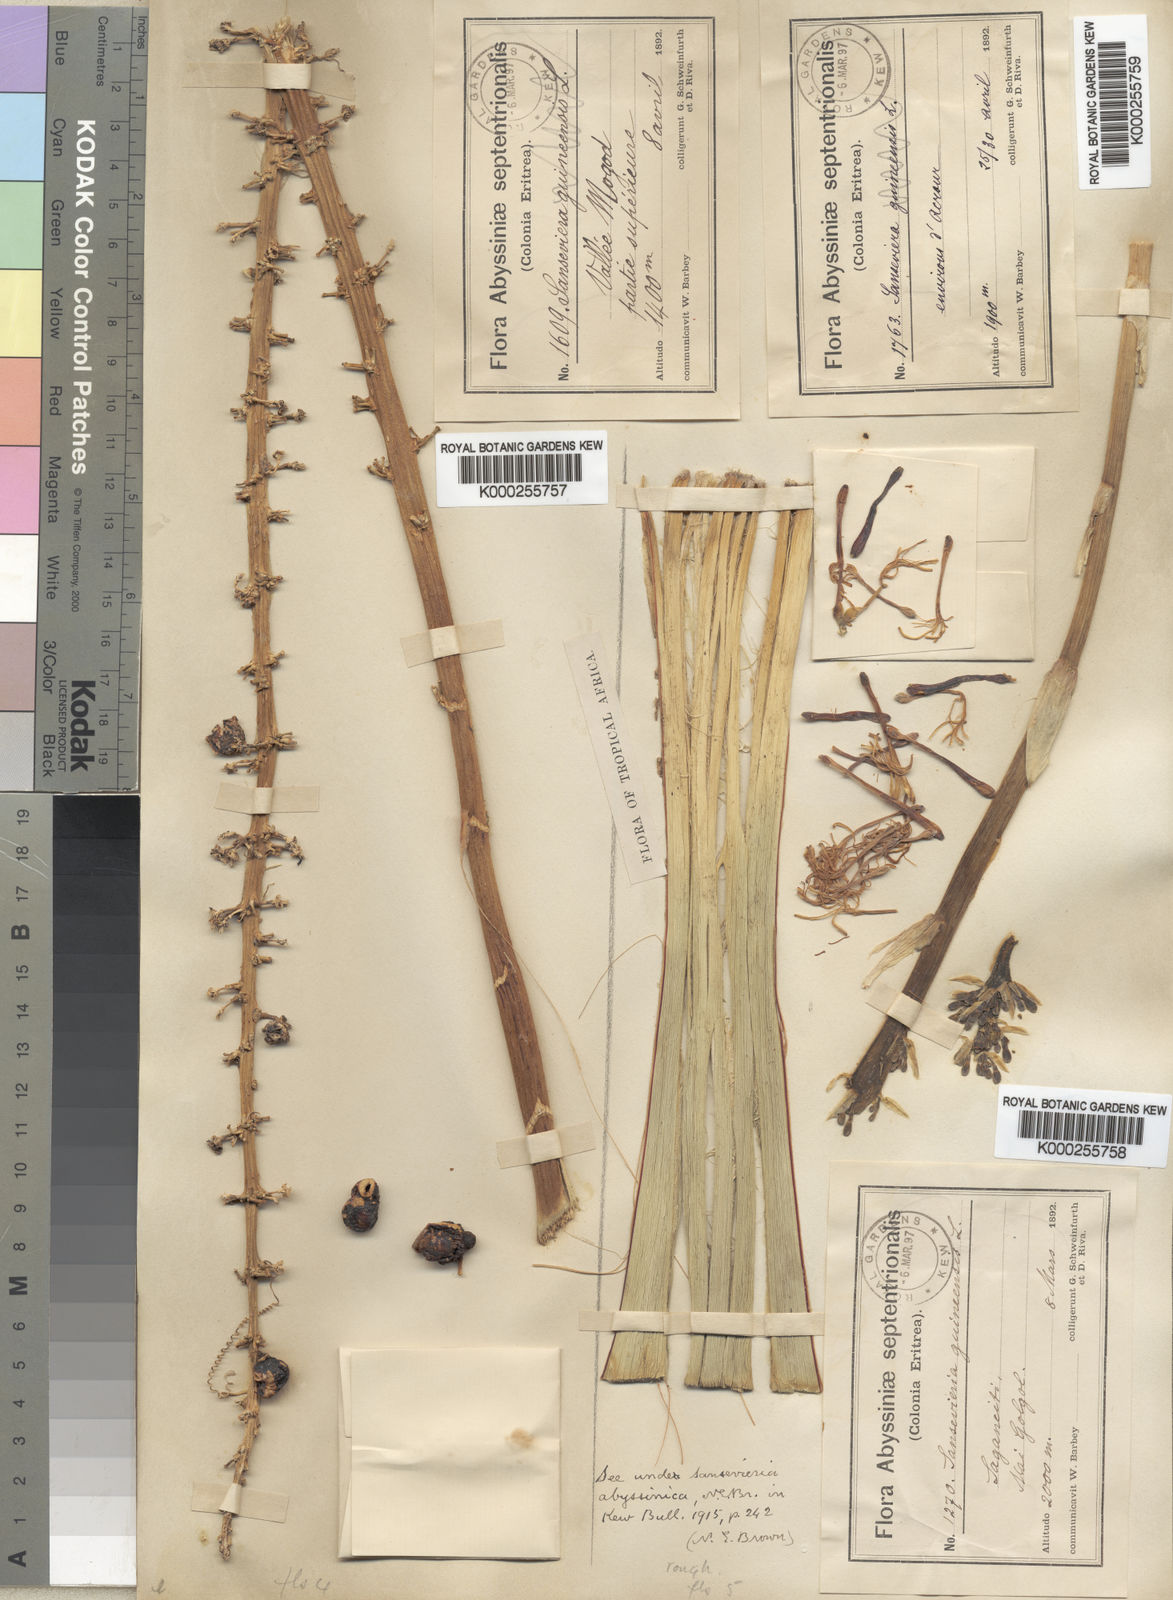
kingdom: Plantae
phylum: Tracheophyta
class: Liliopsida
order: Asparagales
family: Asparagaceae
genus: Dracaena
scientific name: Dracaena hyacinthoides
